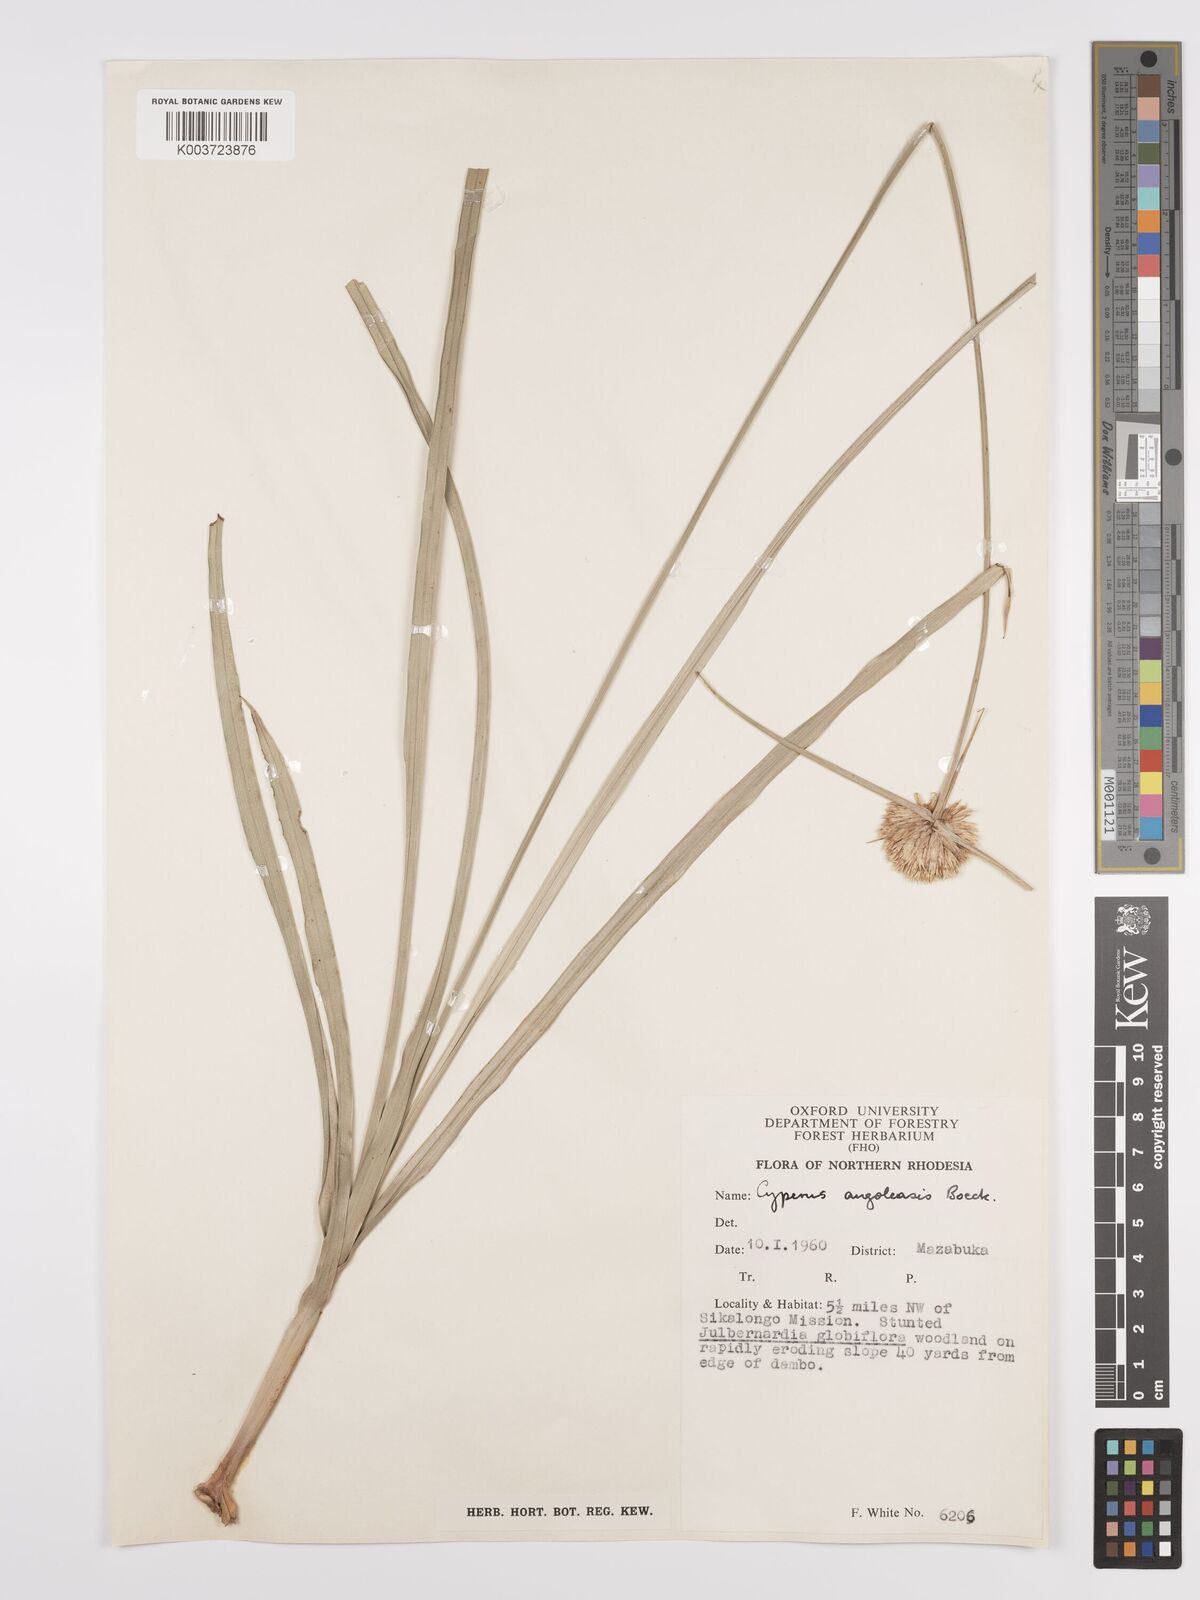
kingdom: Plantae
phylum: Tracheophyta
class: Liliopsida
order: Poales
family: Cyperaceae
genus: Cyperus
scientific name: Cyperus angolensis
